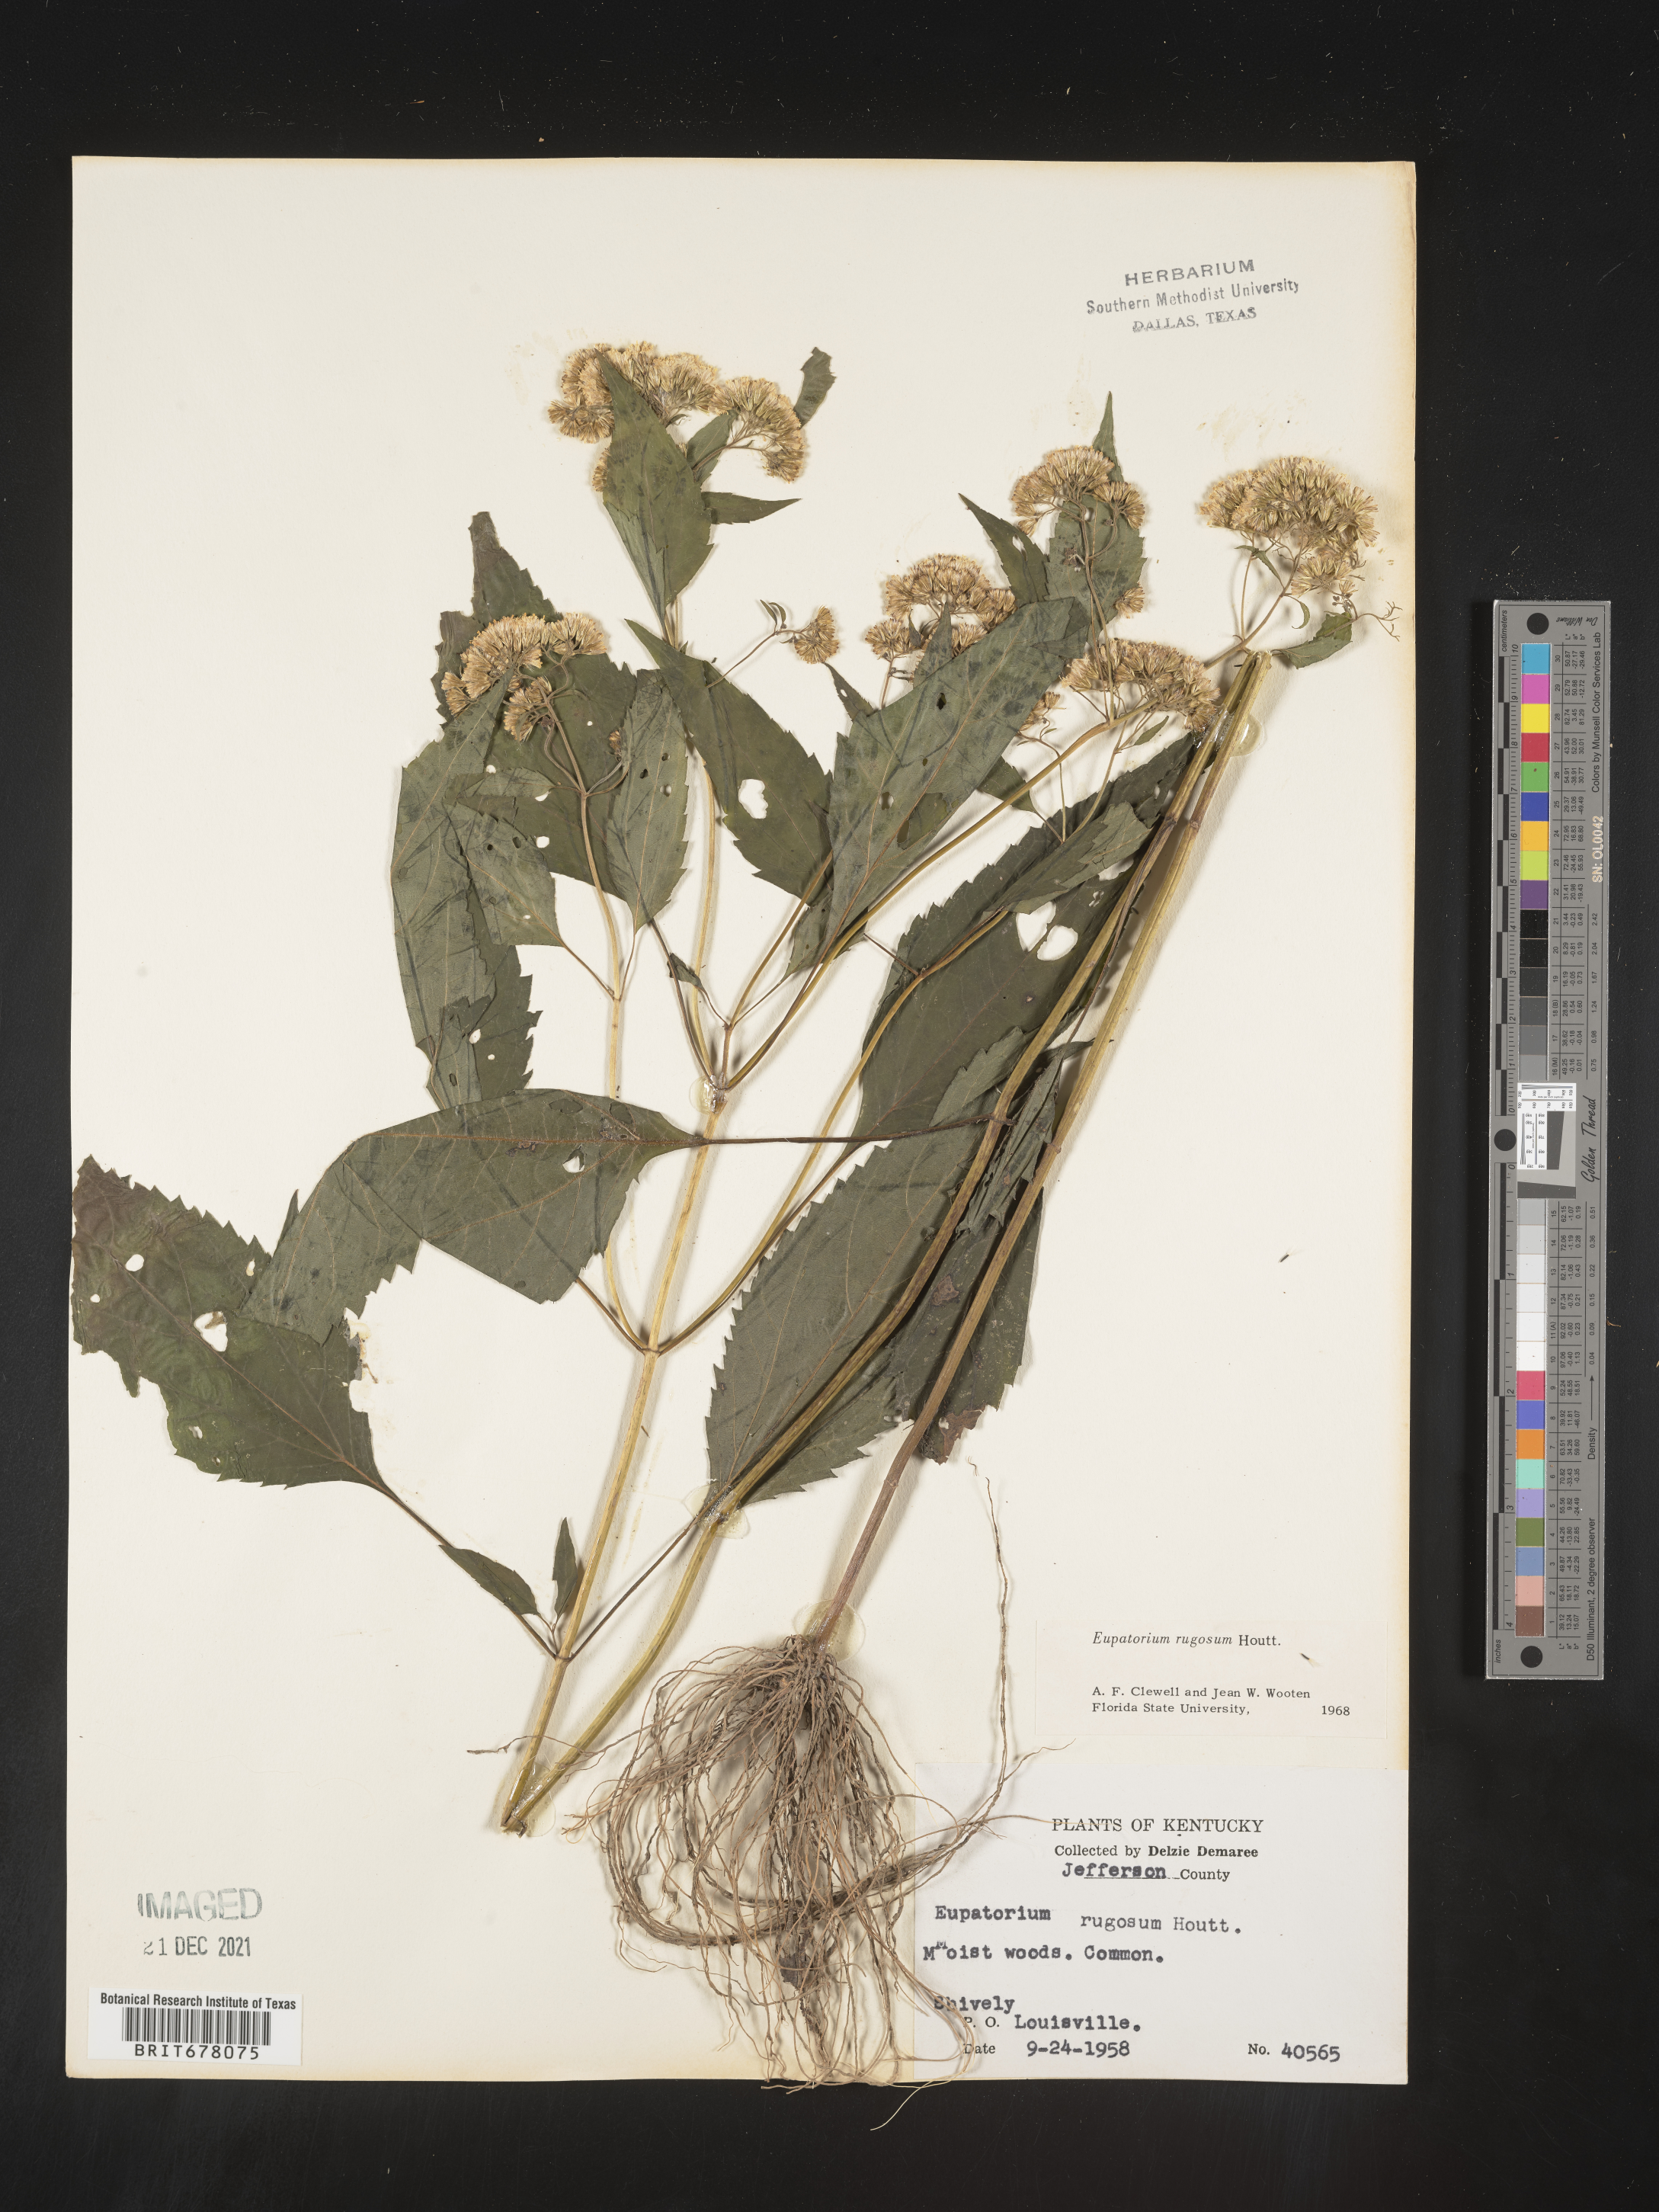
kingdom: Plantae
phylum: Tracheophyta
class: Magnoliopsida
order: Asterales
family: Asteraceae
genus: Eupatorium
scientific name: Eupatorium
